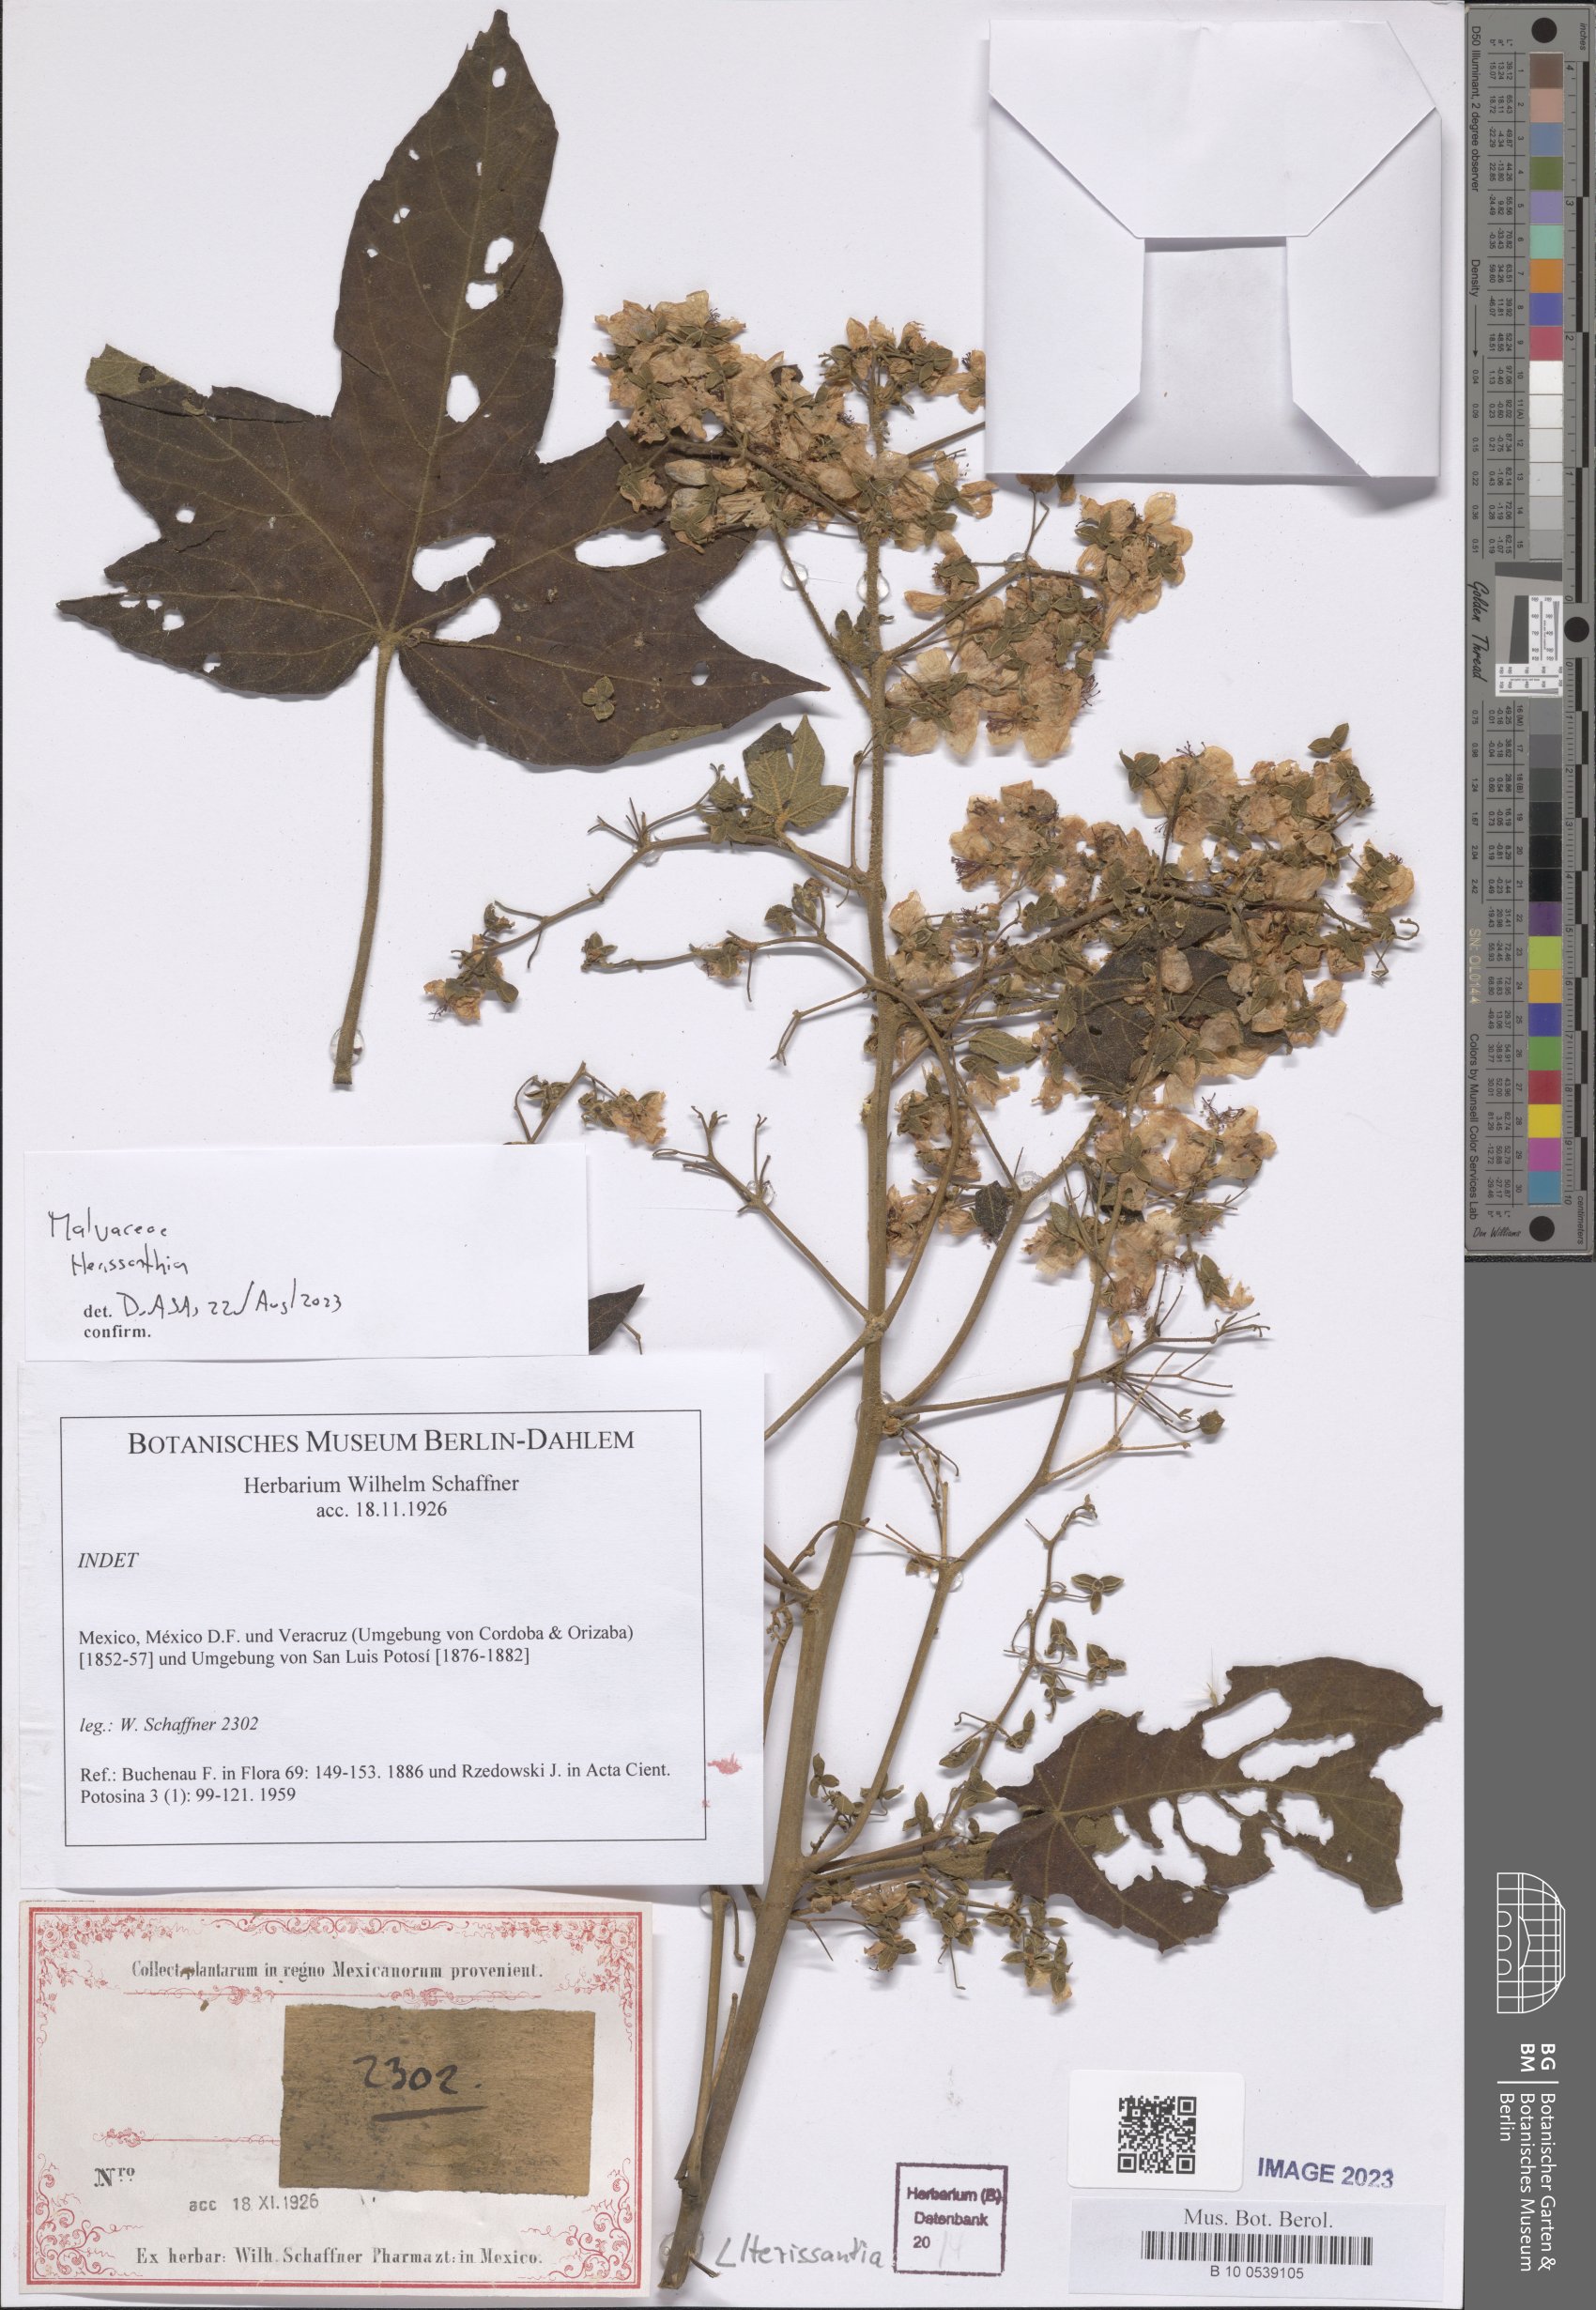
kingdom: Plantae
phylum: Tracheophyta
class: Magnoliopsida
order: Malvales
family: Malvaceae
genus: Herissantia
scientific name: Herissantia
